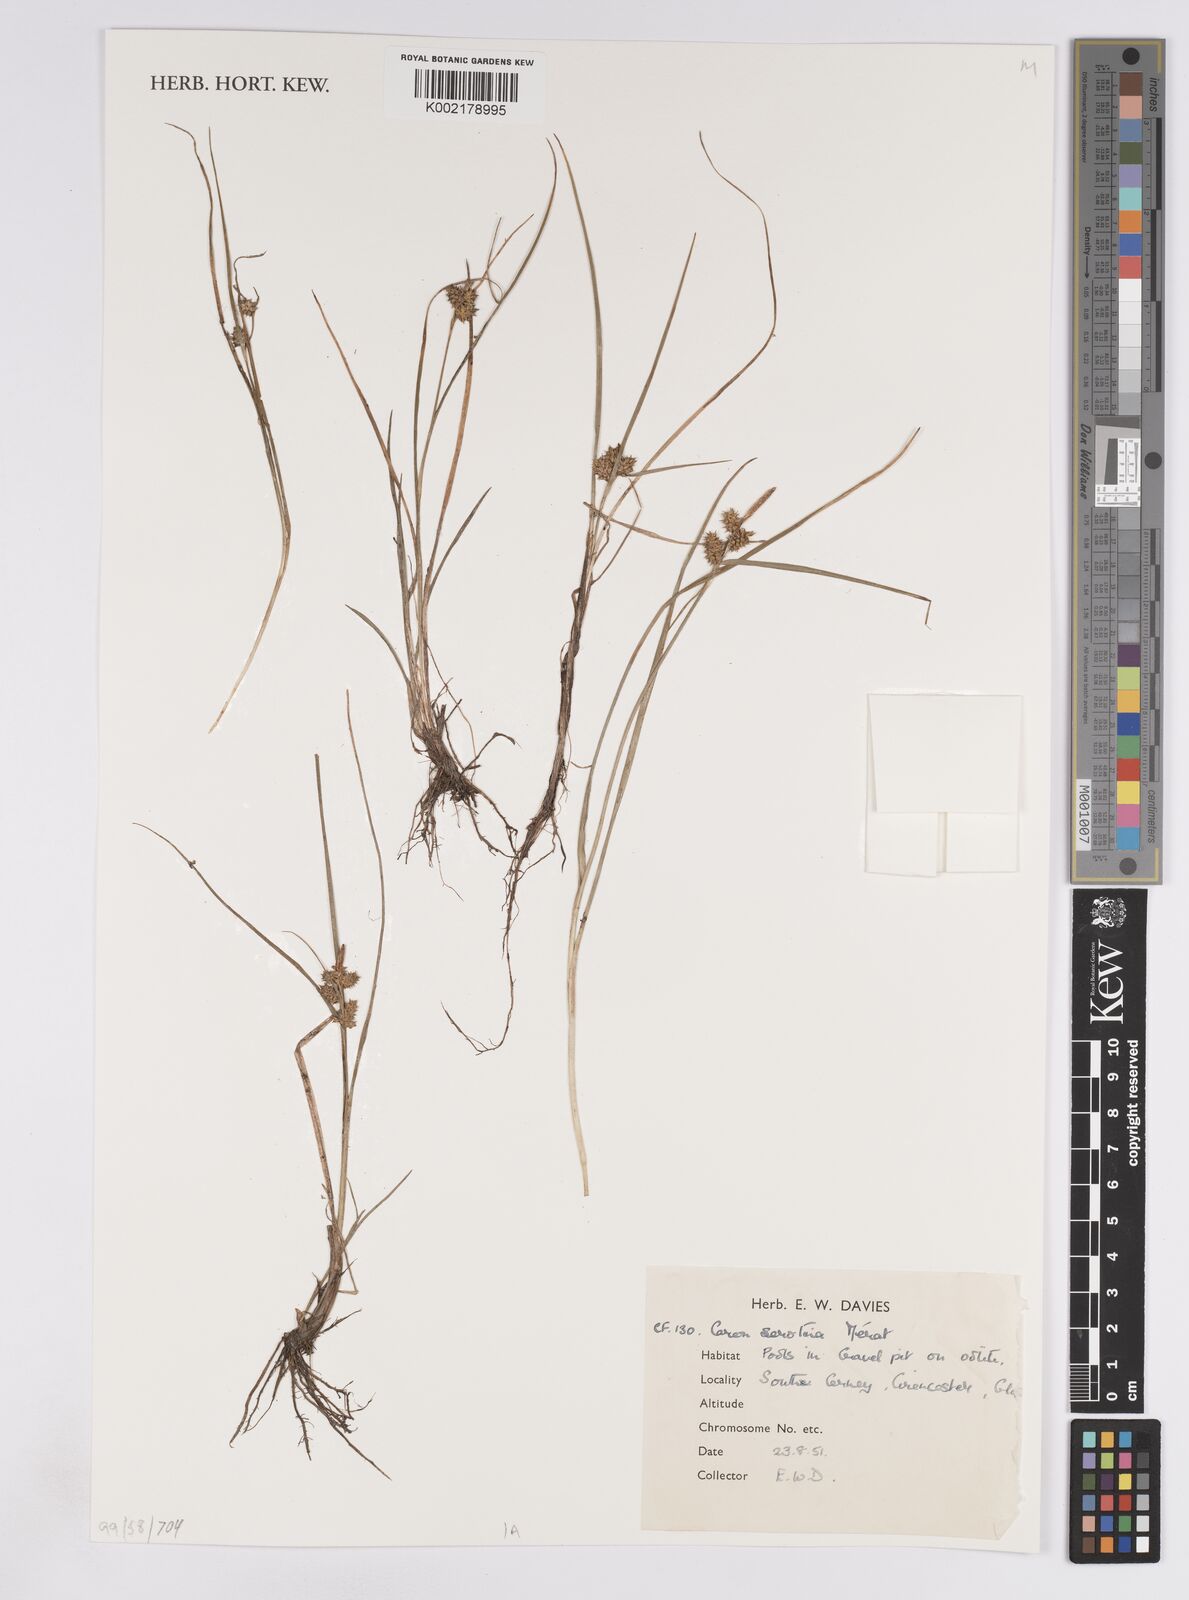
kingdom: Plantae
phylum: Tracheophyta
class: Liliopsida
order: Poales
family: Cyperaceae
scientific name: Cyperaceae
